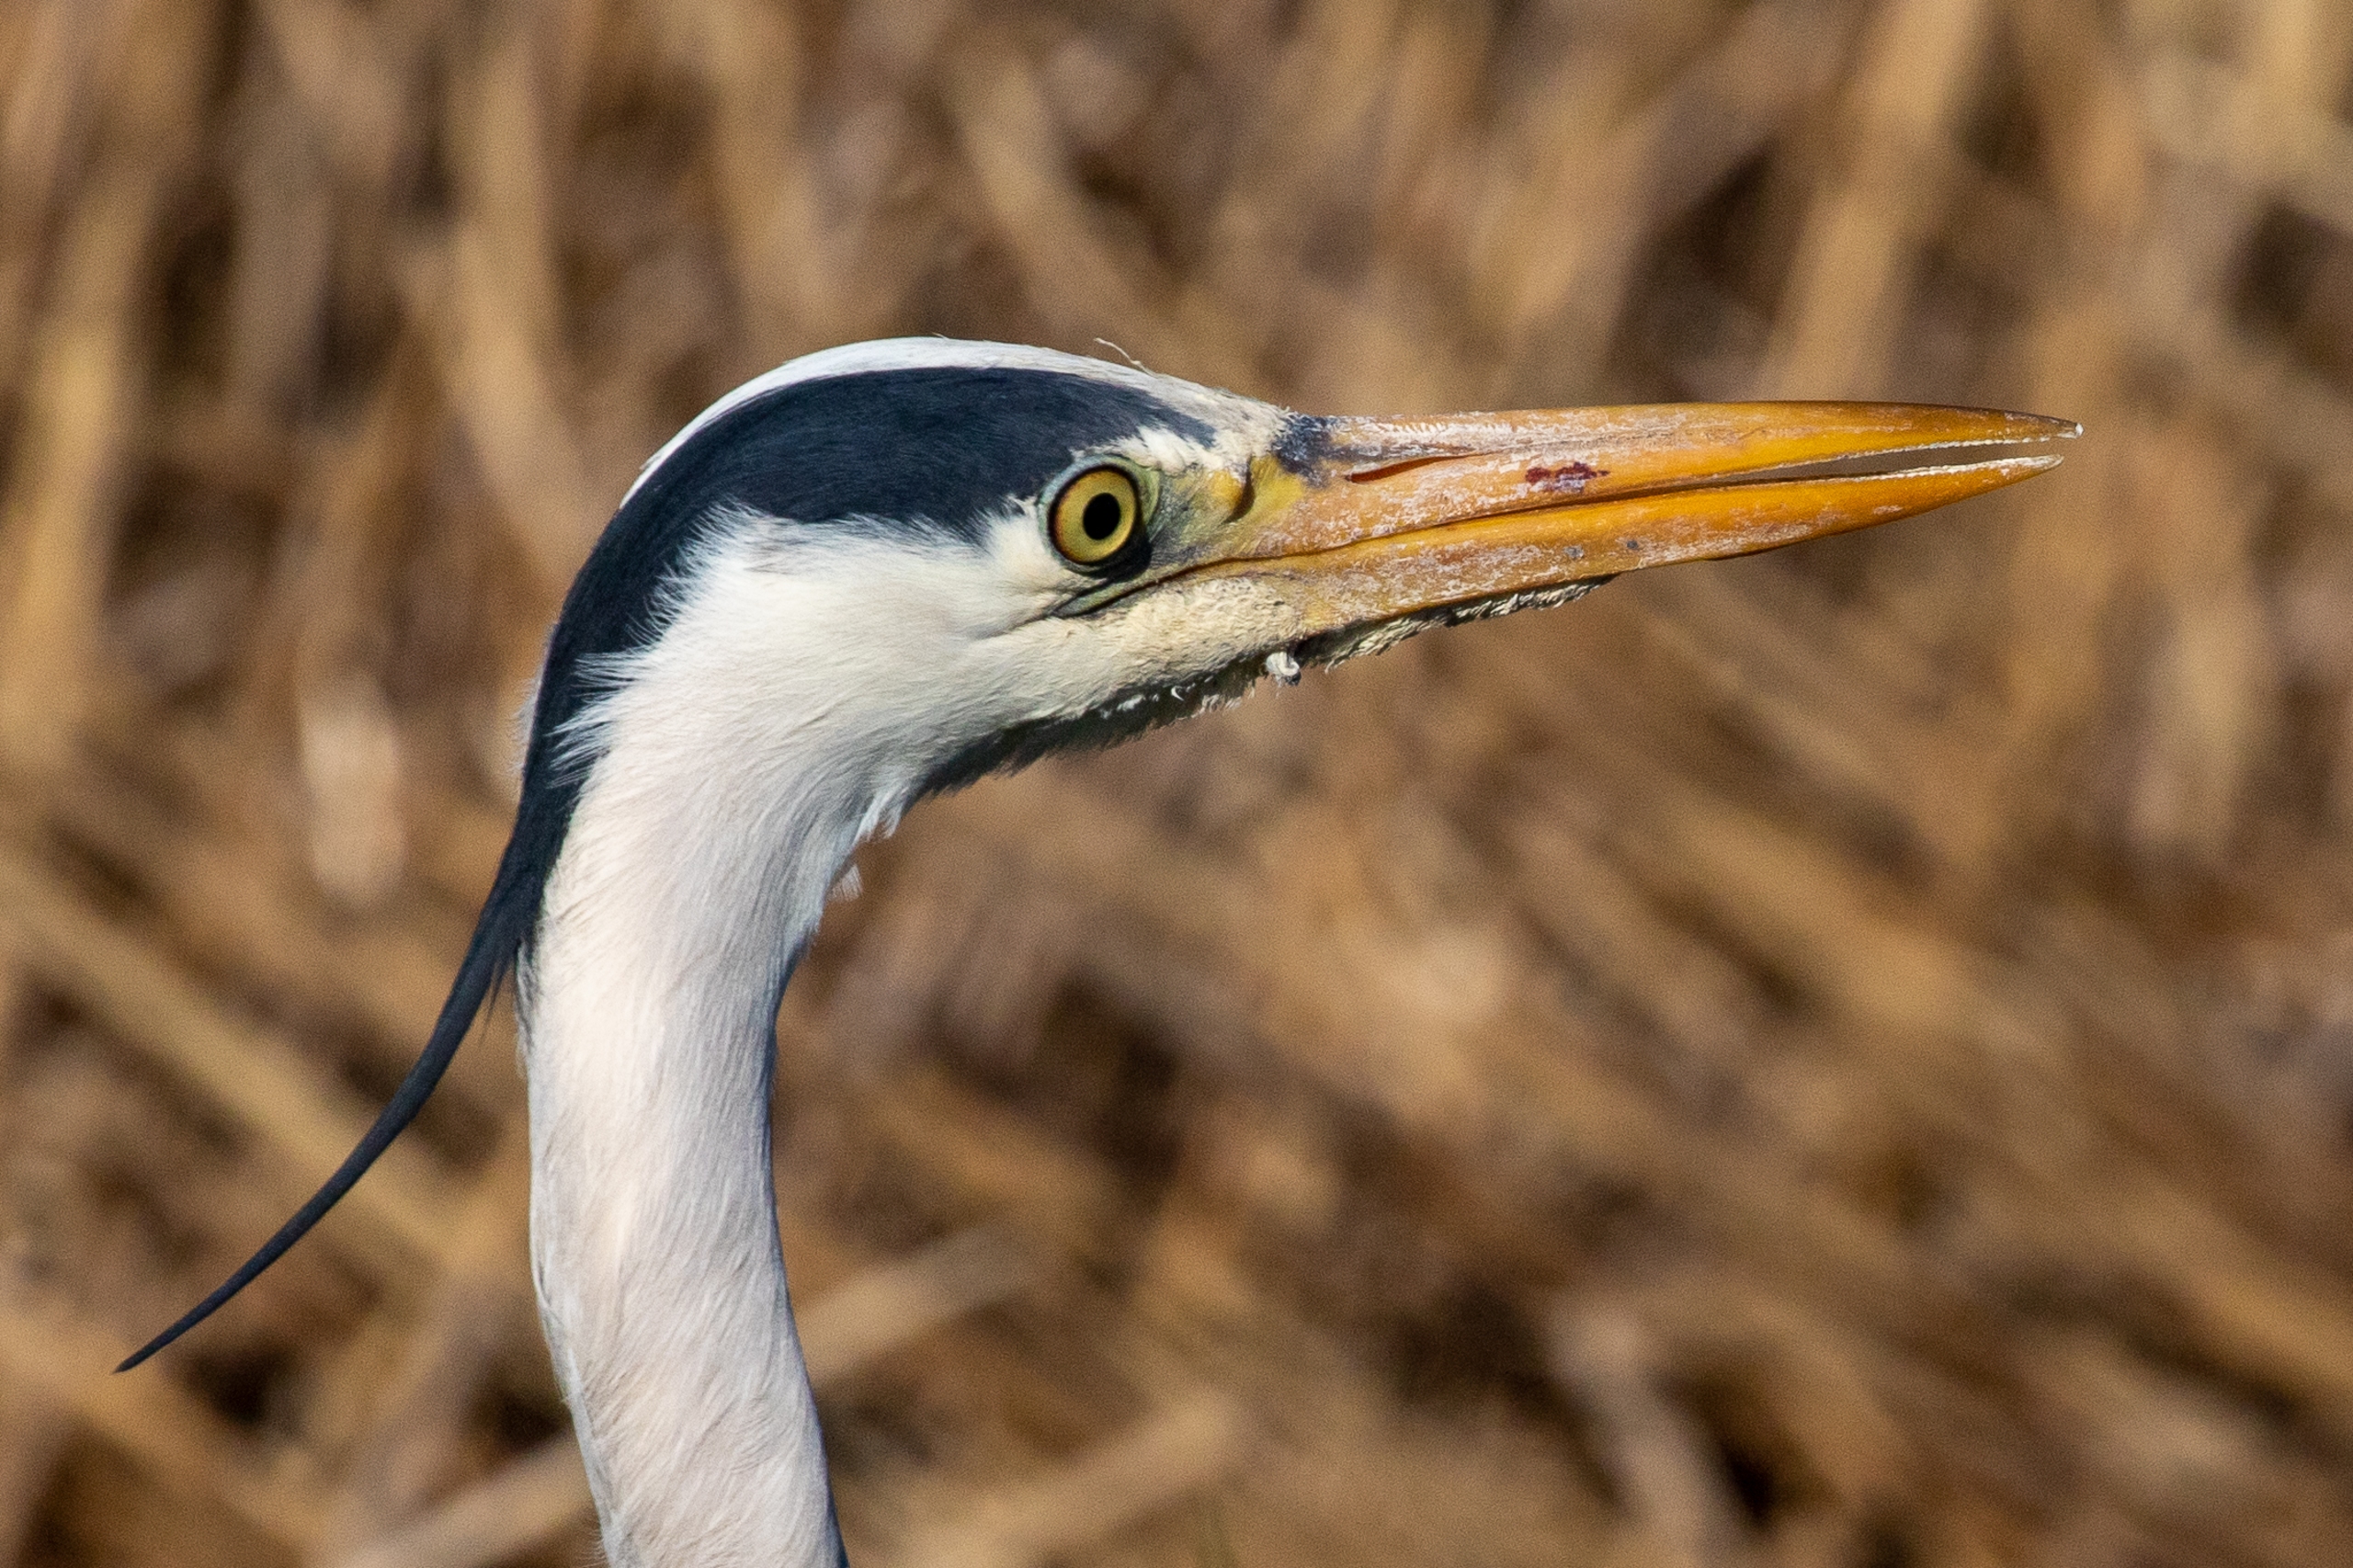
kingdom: Animalia
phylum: Chordata
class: Aves
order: Pelecaniformes
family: Ardeidae
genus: Ardea
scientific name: Ardea cinerea
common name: Fiskehejre
